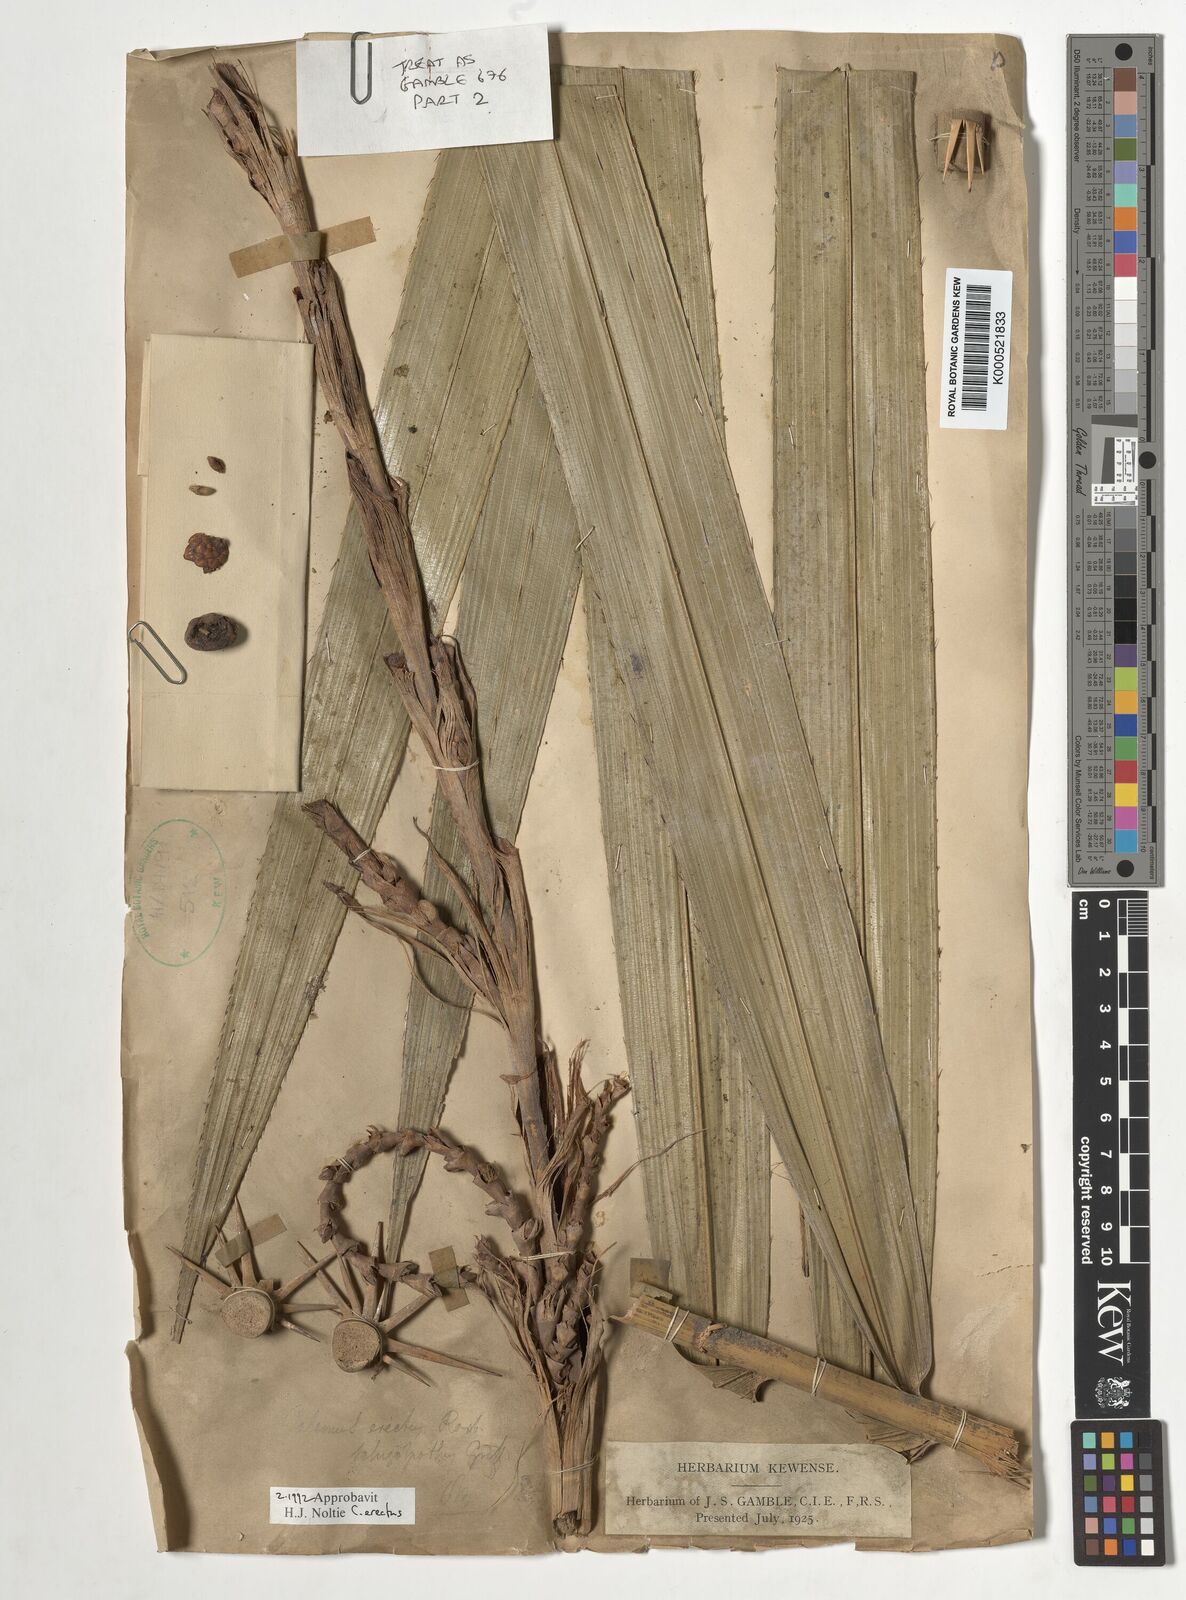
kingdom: Plantae
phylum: Tracheophyta
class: Liliopsida
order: Arecales
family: Arecaceae
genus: Calamus
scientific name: Calamus erectus
